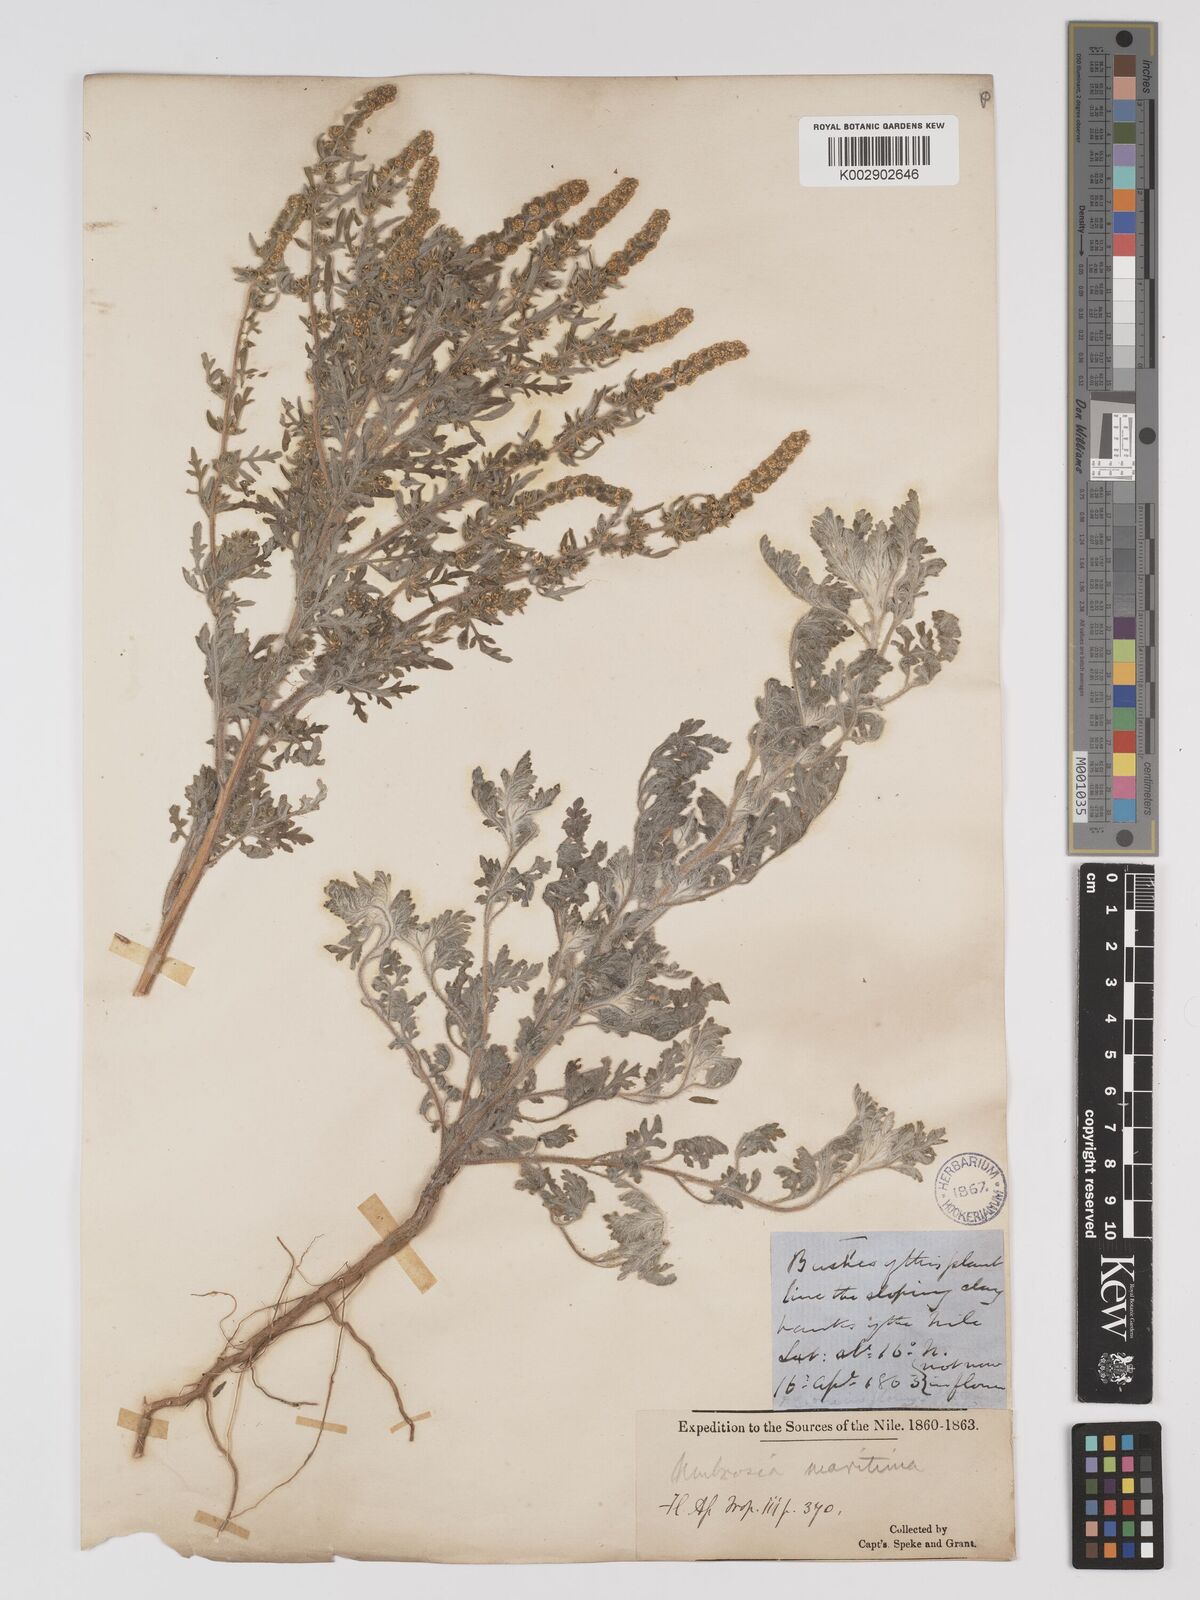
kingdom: Plantae
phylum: Tracheophyta
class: Magnoliopsida
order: Asterales
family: Asteraceae
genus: Ambrosia
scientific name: Ambrosia maritima
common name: Sea ambrosia
